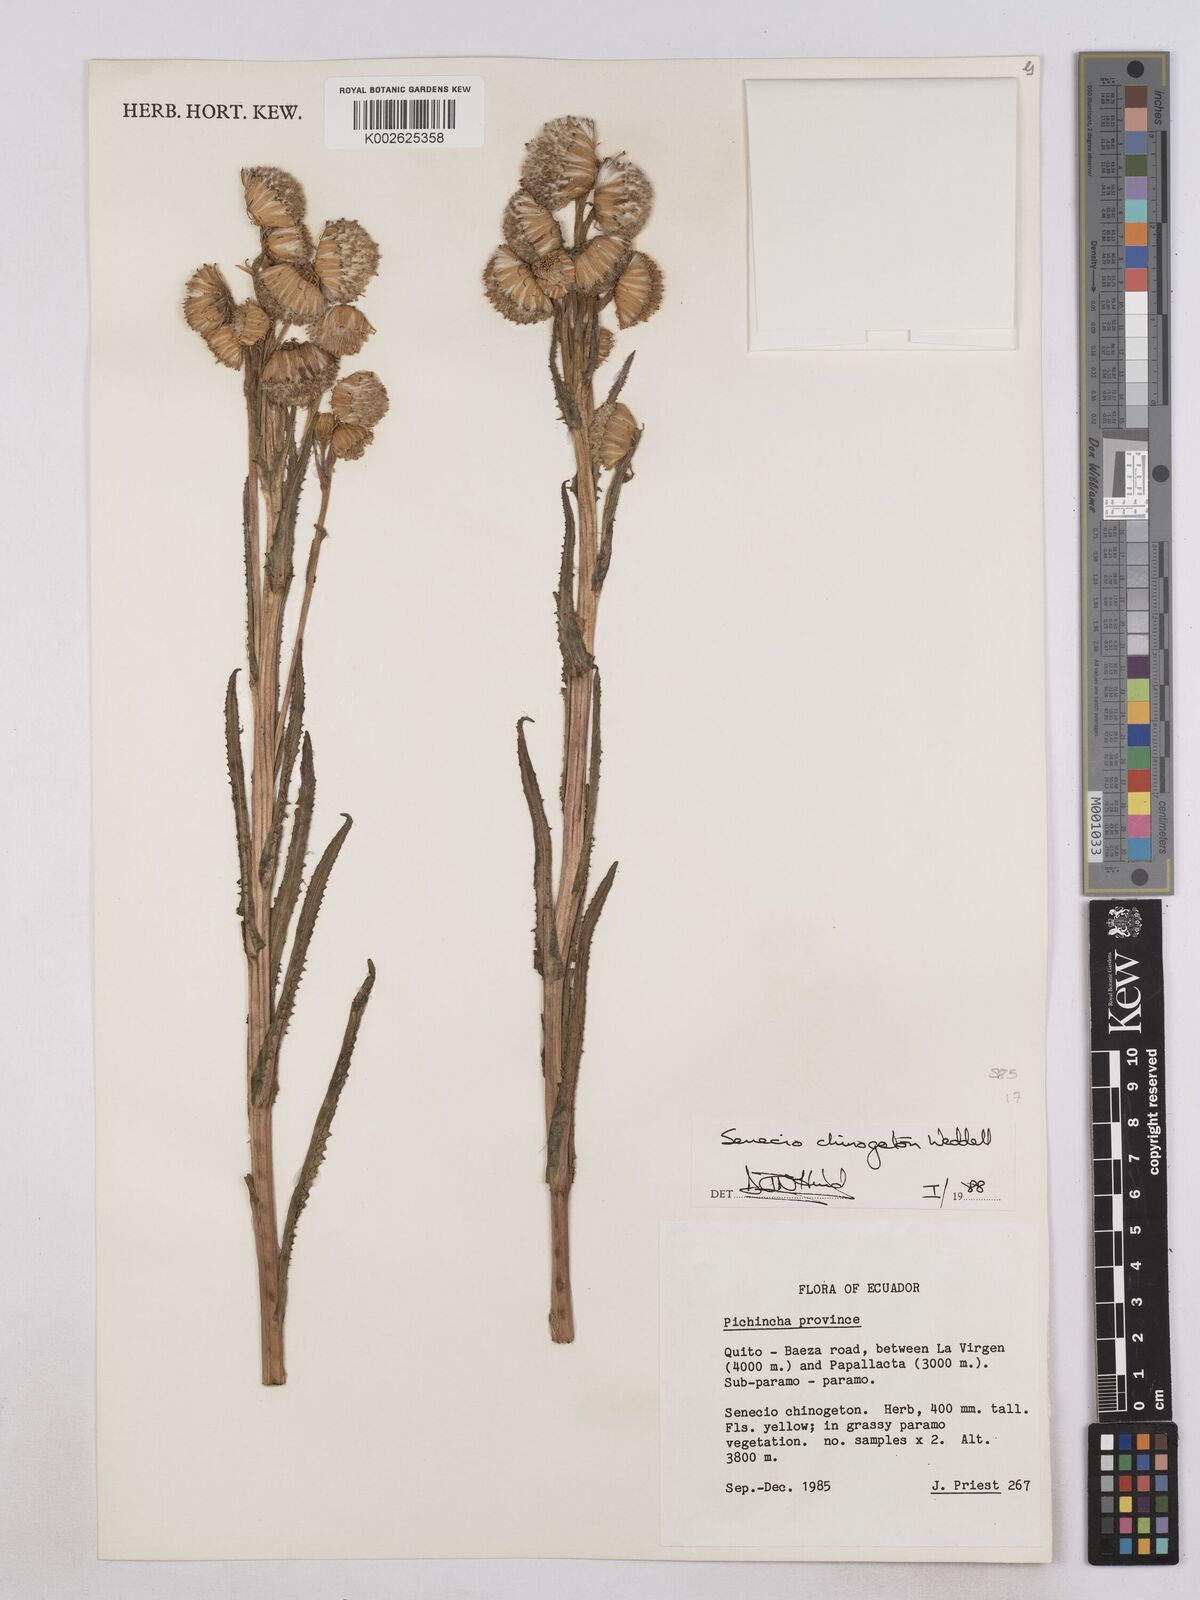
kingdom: Plantae
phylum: Tracheophyta
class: Magnoliopsida
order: Asterales
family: Asteraceae
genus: Senecio
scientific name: Senecio chionogeton
